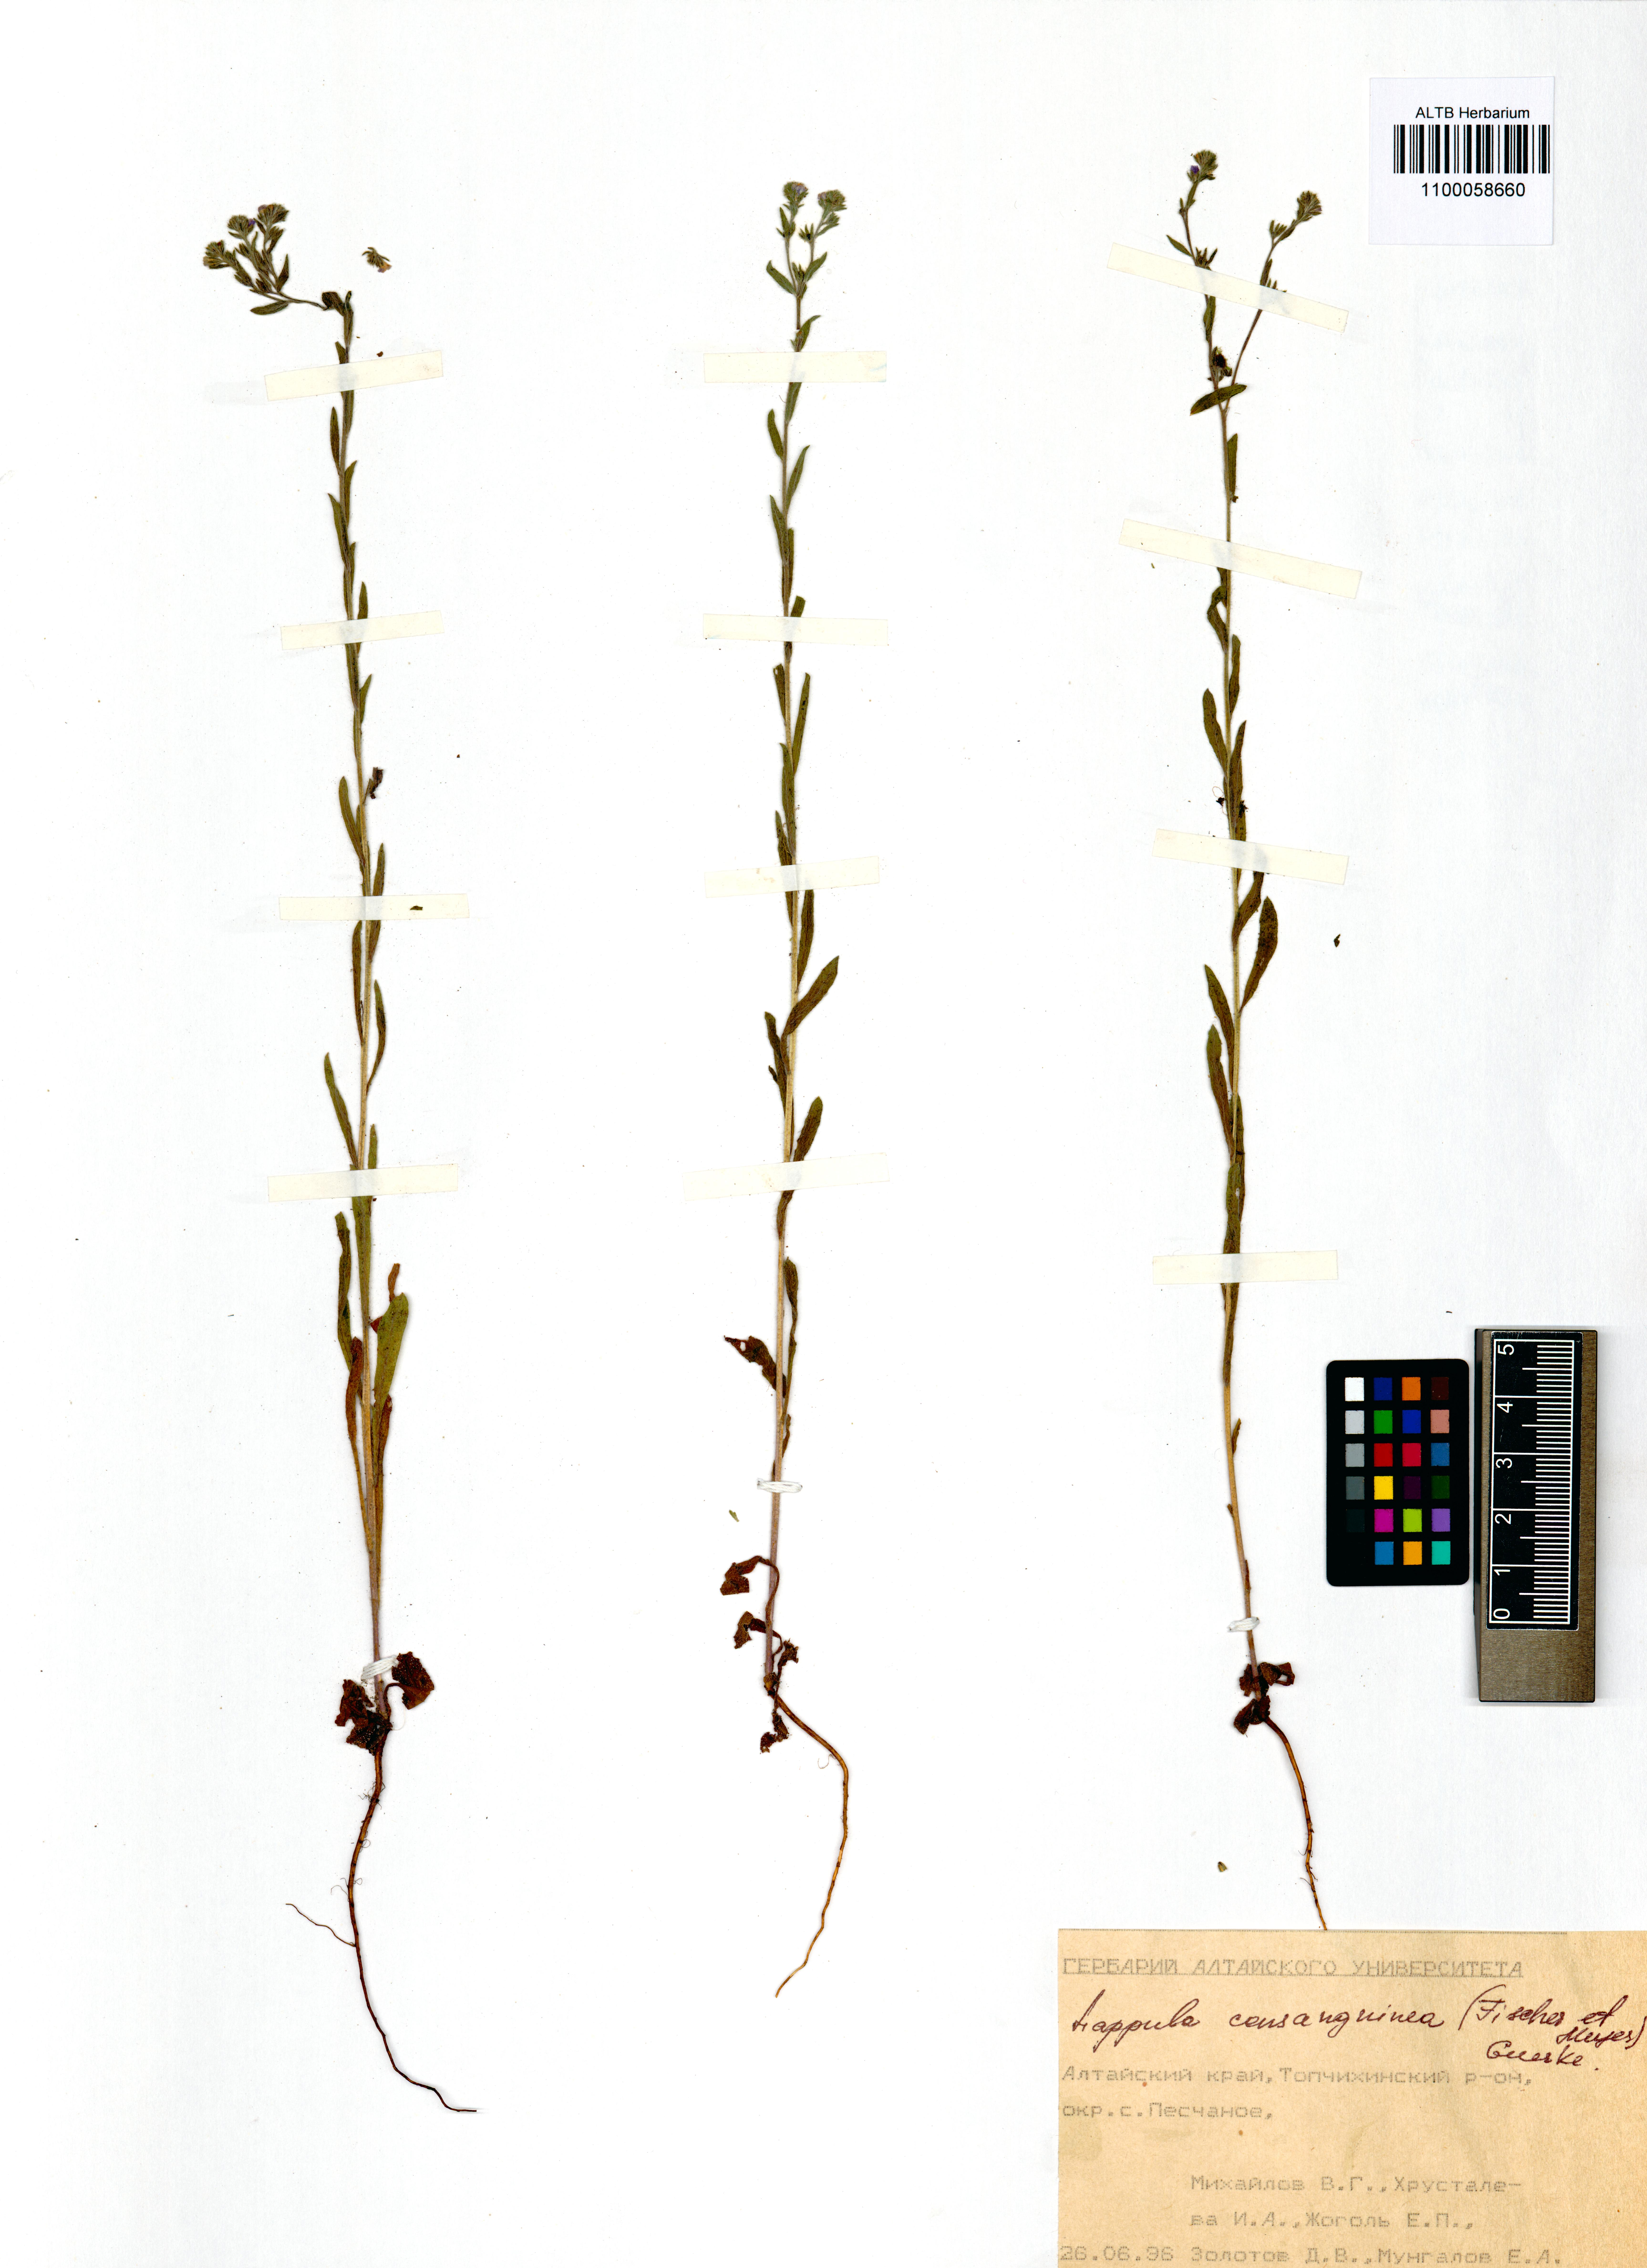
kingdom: Plantae
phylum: Tracheophyta
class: Magnoliopsida
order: Boraginales
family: Boraginaceae
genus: Lappula
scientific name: Lappula squarrosa
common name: European stickseed
